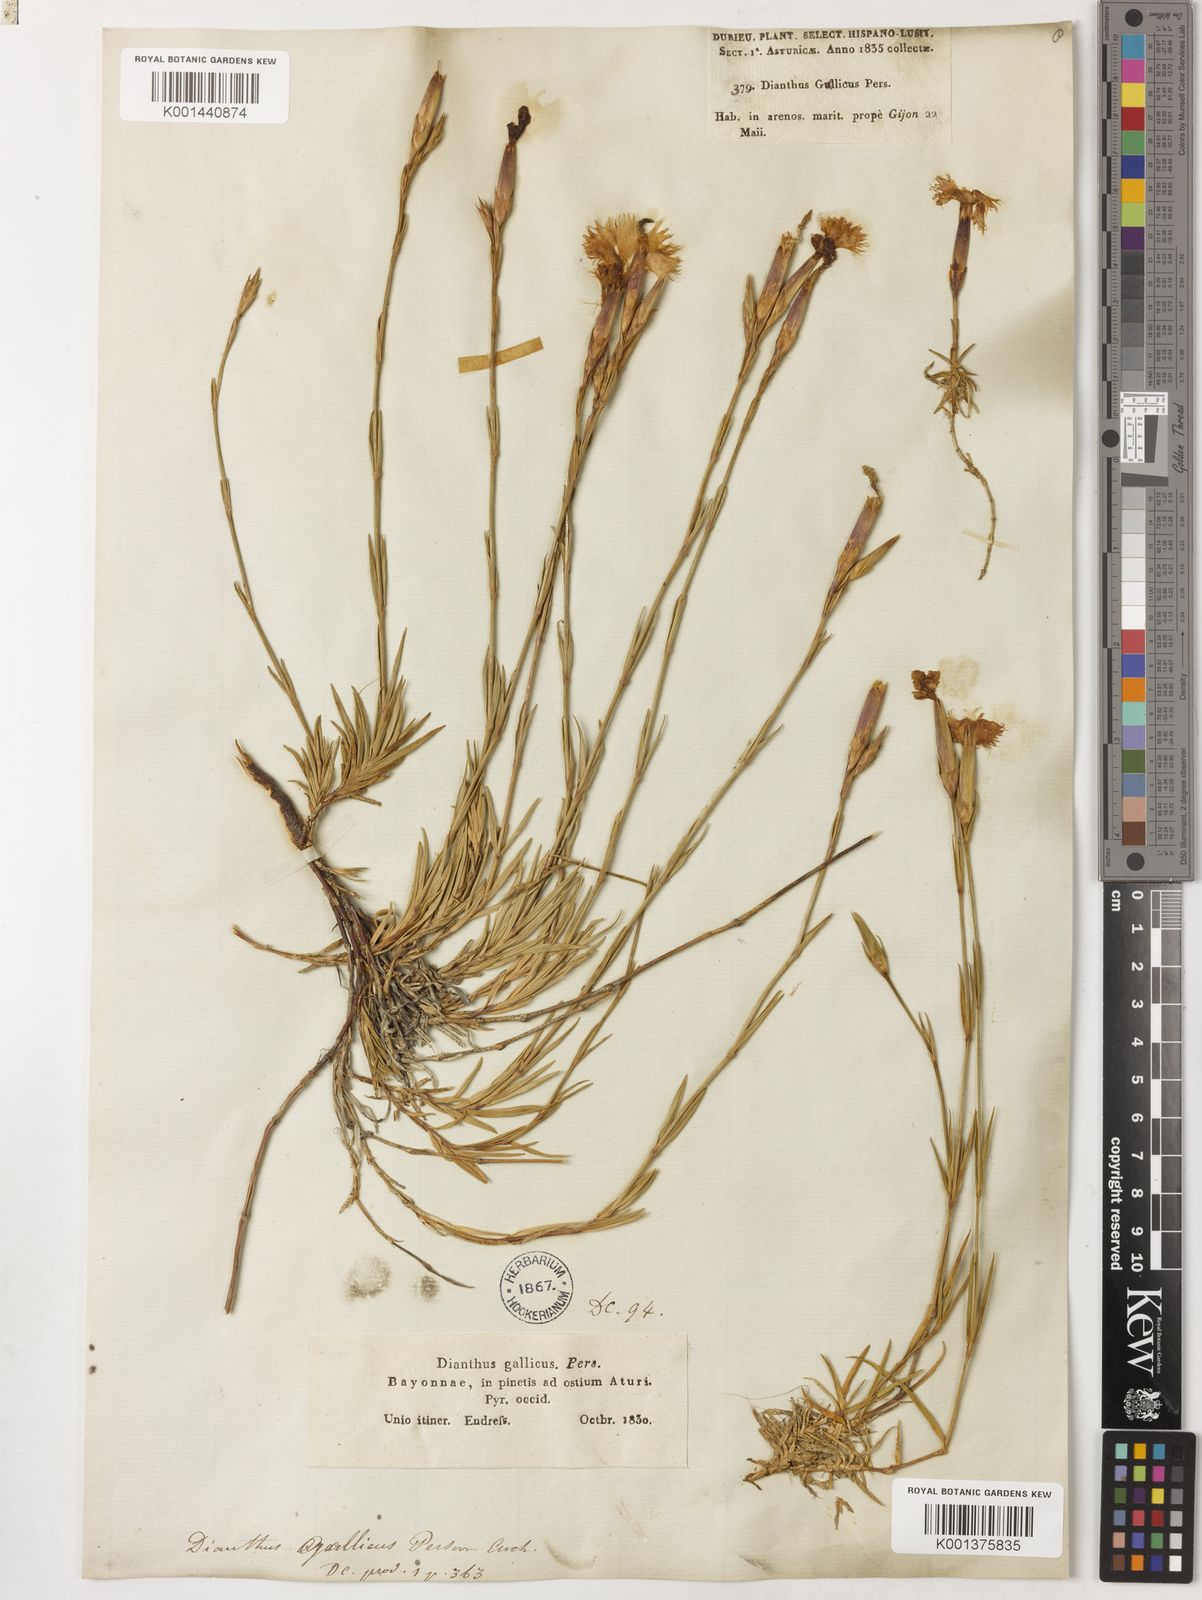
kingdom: Plantae
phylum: Tracheophyta
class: Magnoliopsida
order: Caryophyllales
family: Caryophyllaceae
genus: Dianthus
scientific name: Dianthus gallicus
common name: Jersey pink
